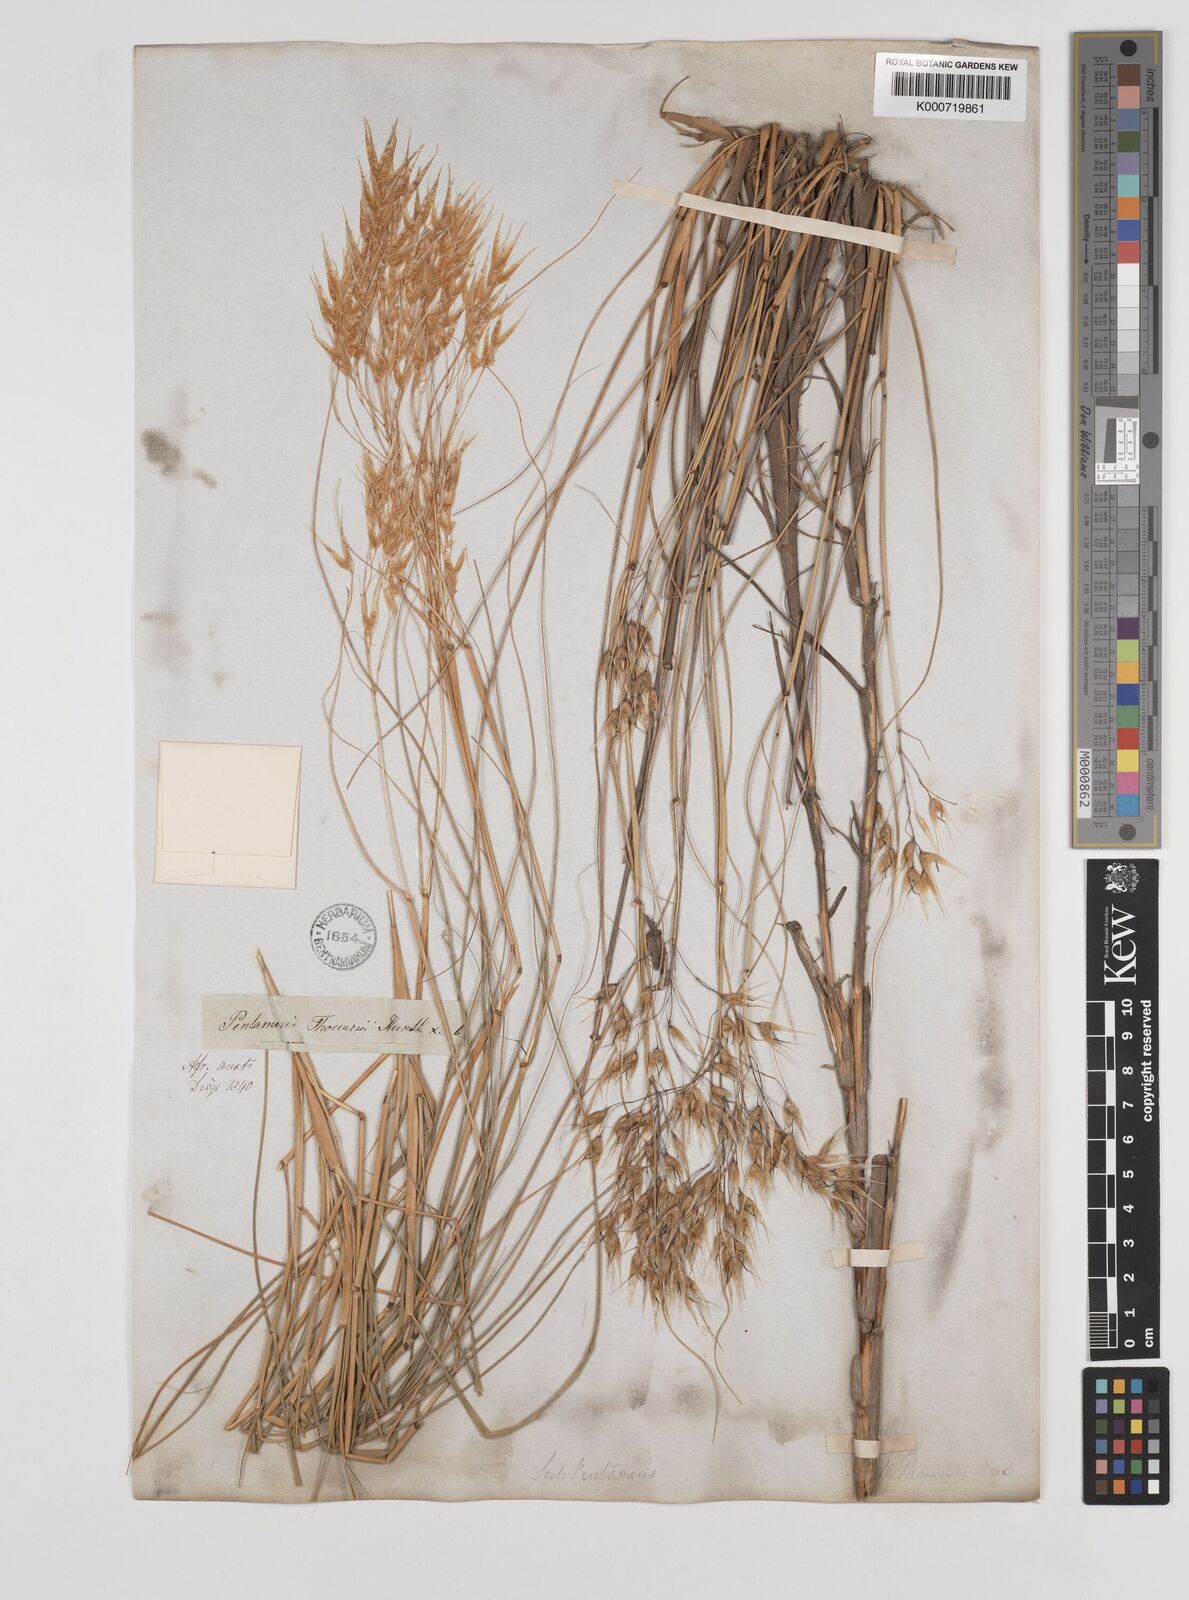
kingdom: Plantae
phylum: Tracheophyta
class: Liliopsida
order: Poales
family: Poaceae
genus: Pentameris
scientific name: Pentameris thuarii
